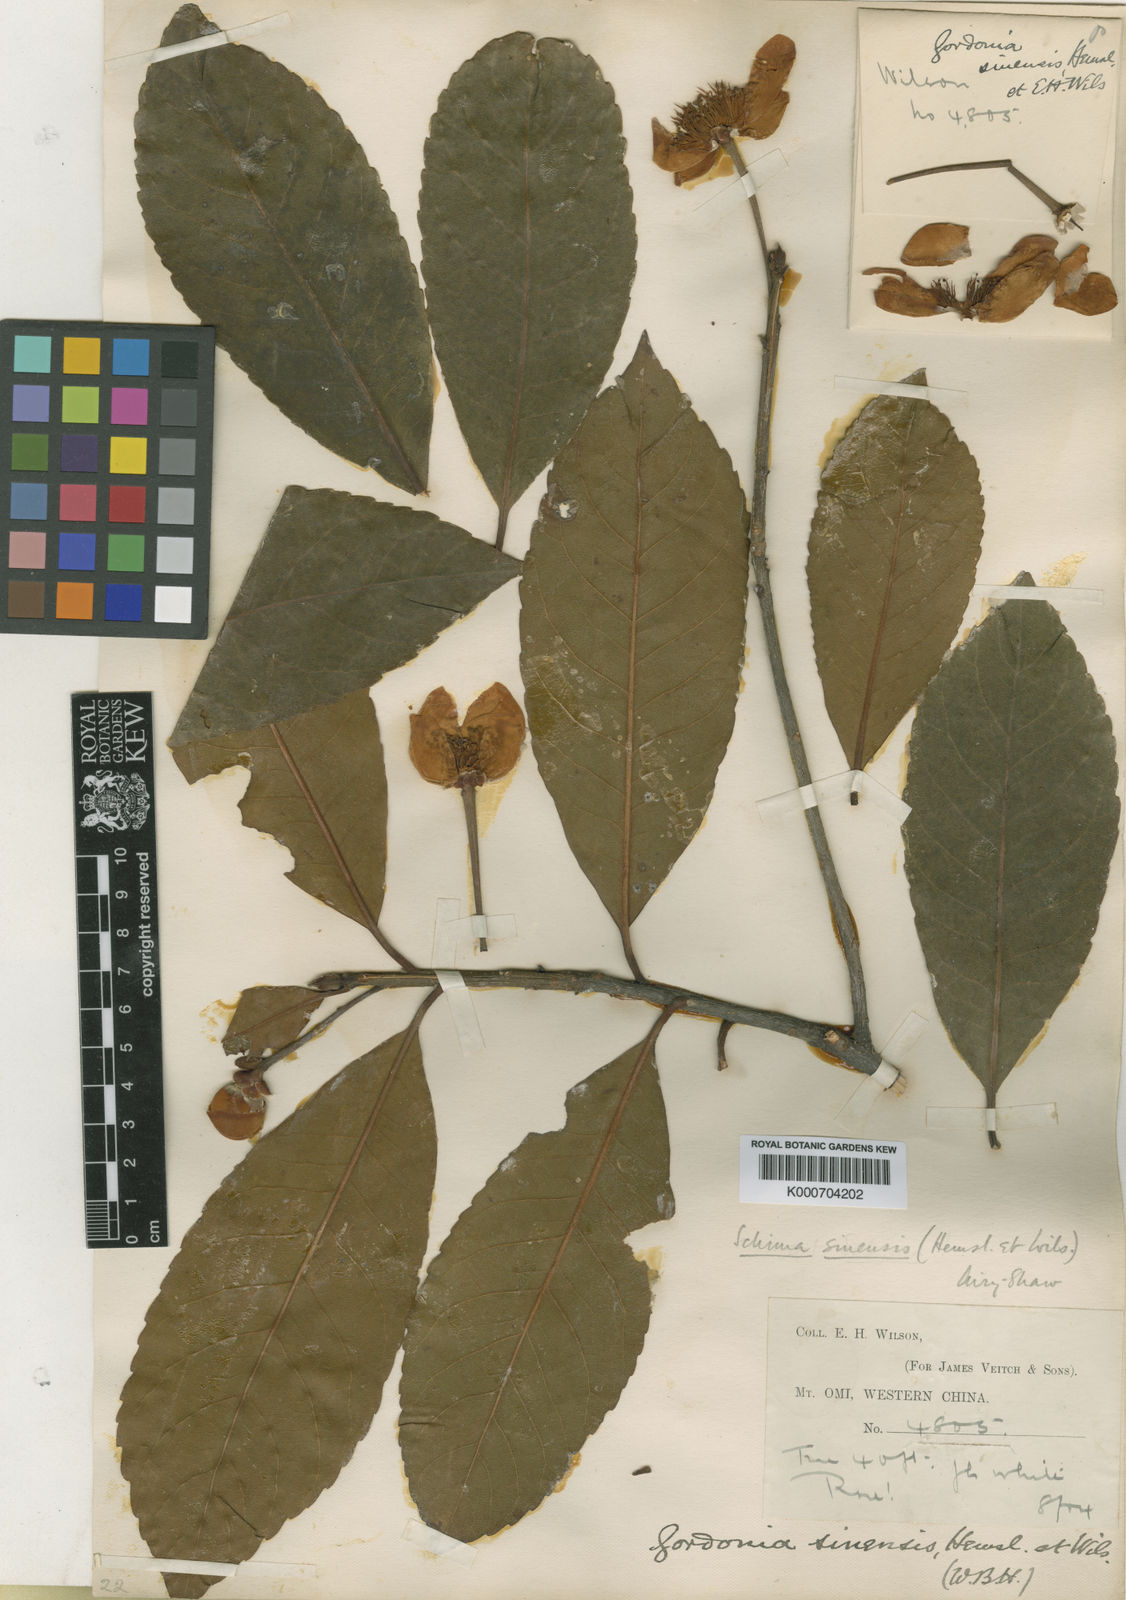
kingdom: Plantae
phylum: Tracheophyta
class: Magnoliopsida
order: Ericales
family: Theaceae
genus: Schima
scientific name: Schima sinensis
